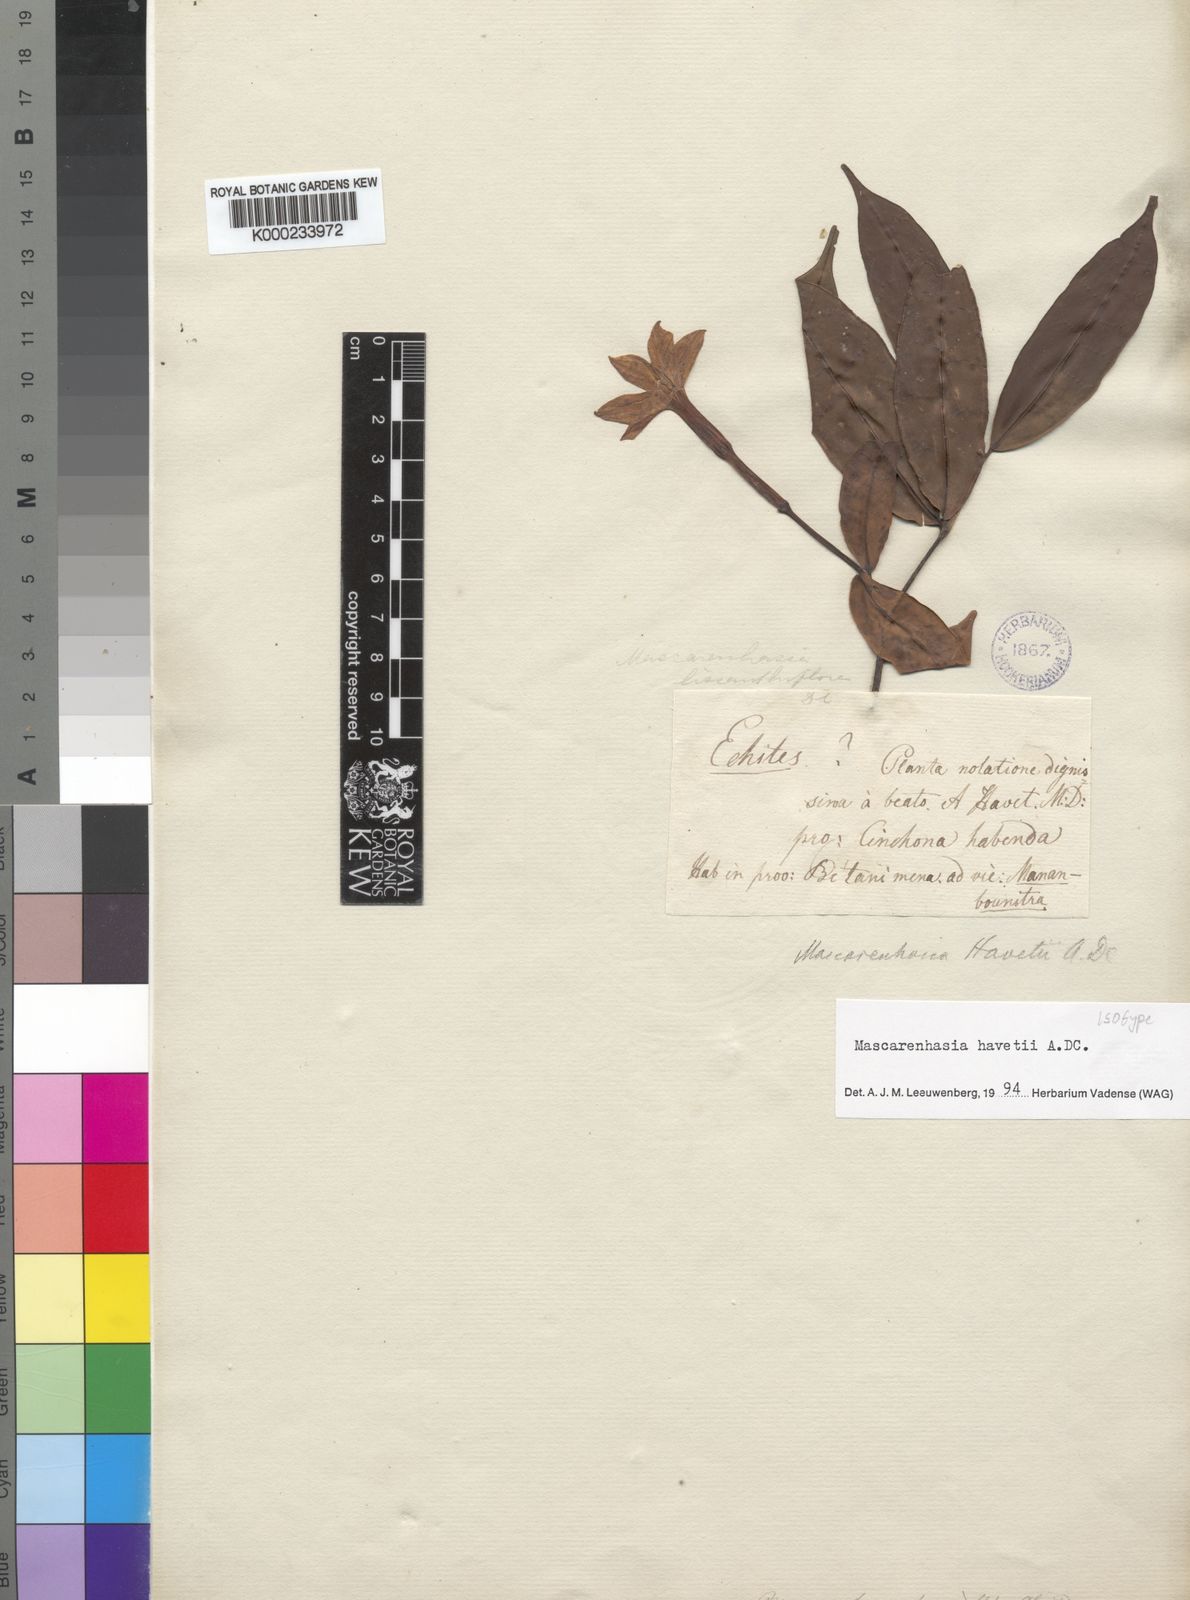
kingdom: Plantae
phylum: Tracheophyta
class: Magnoliopsida
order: Gentianales
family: Apocynaceae
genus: Mascarenhasia
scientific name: Mascarenhasia havetii
